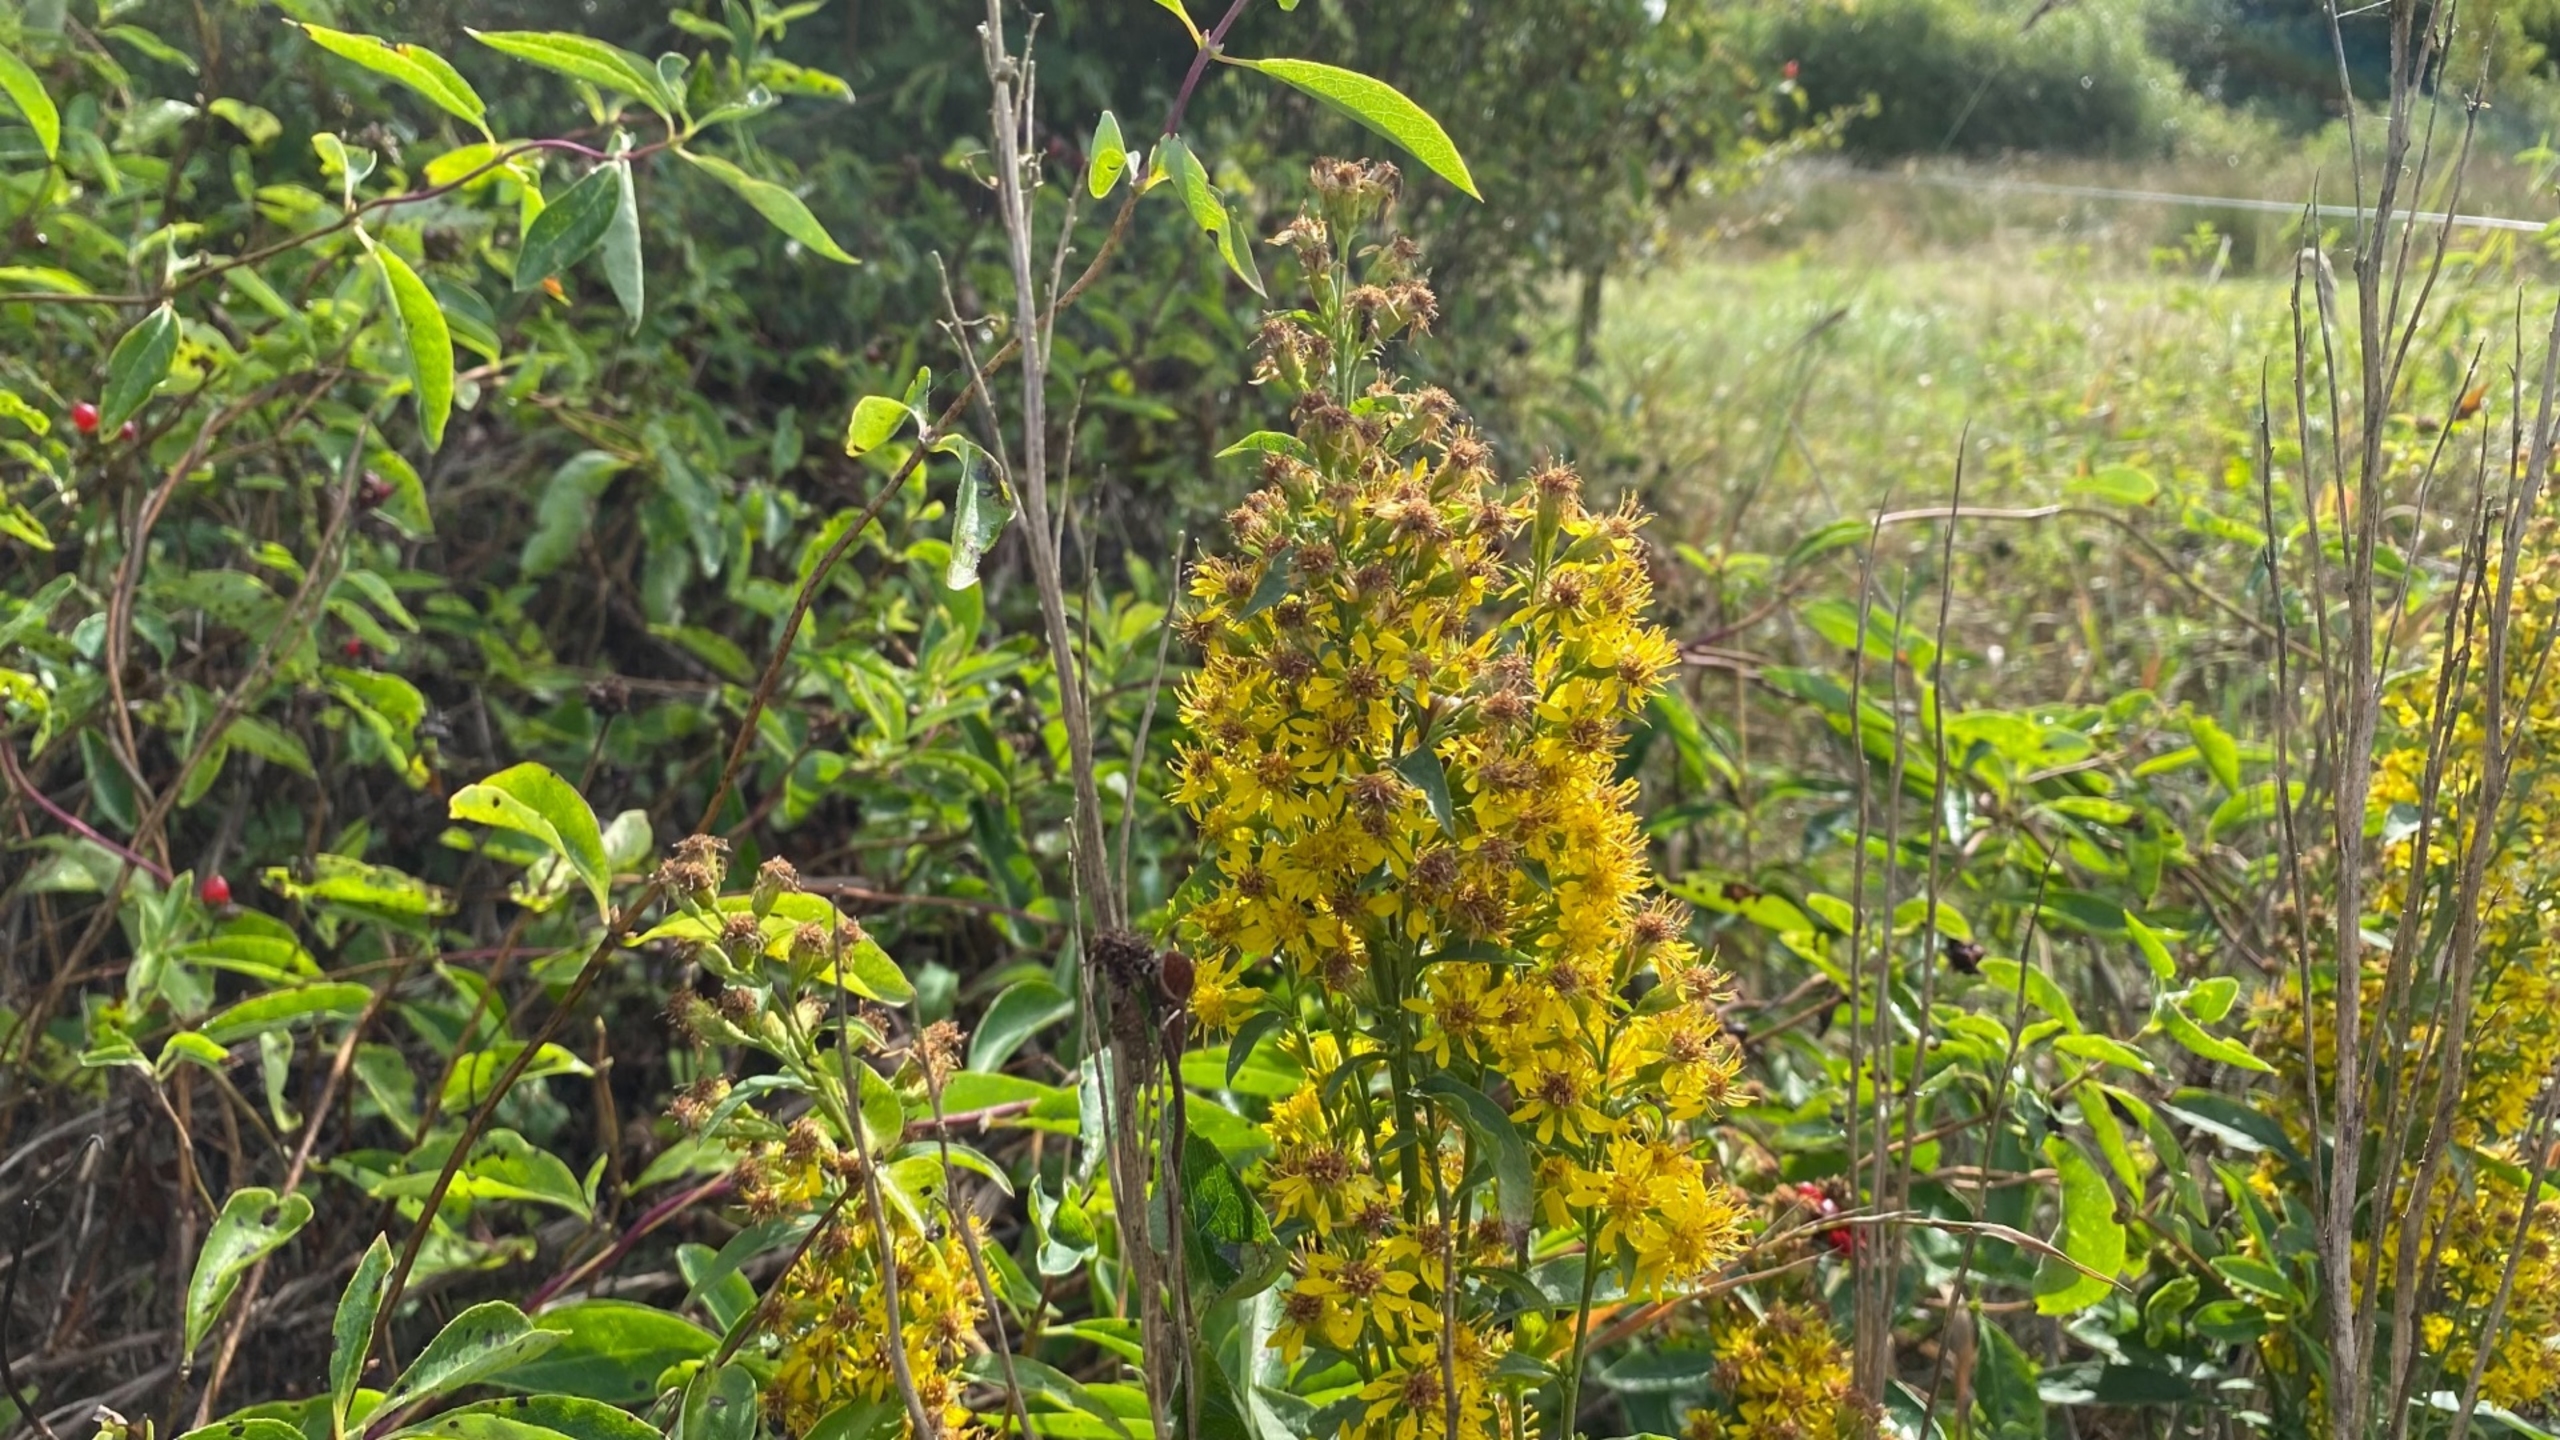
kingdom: Plantae
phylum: Tracheophyta
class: Magnoliopsida
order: Asterales
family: Asteraceae
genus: Solidago
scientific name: Solidago virgaurea
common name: Almindelig gyldenris
